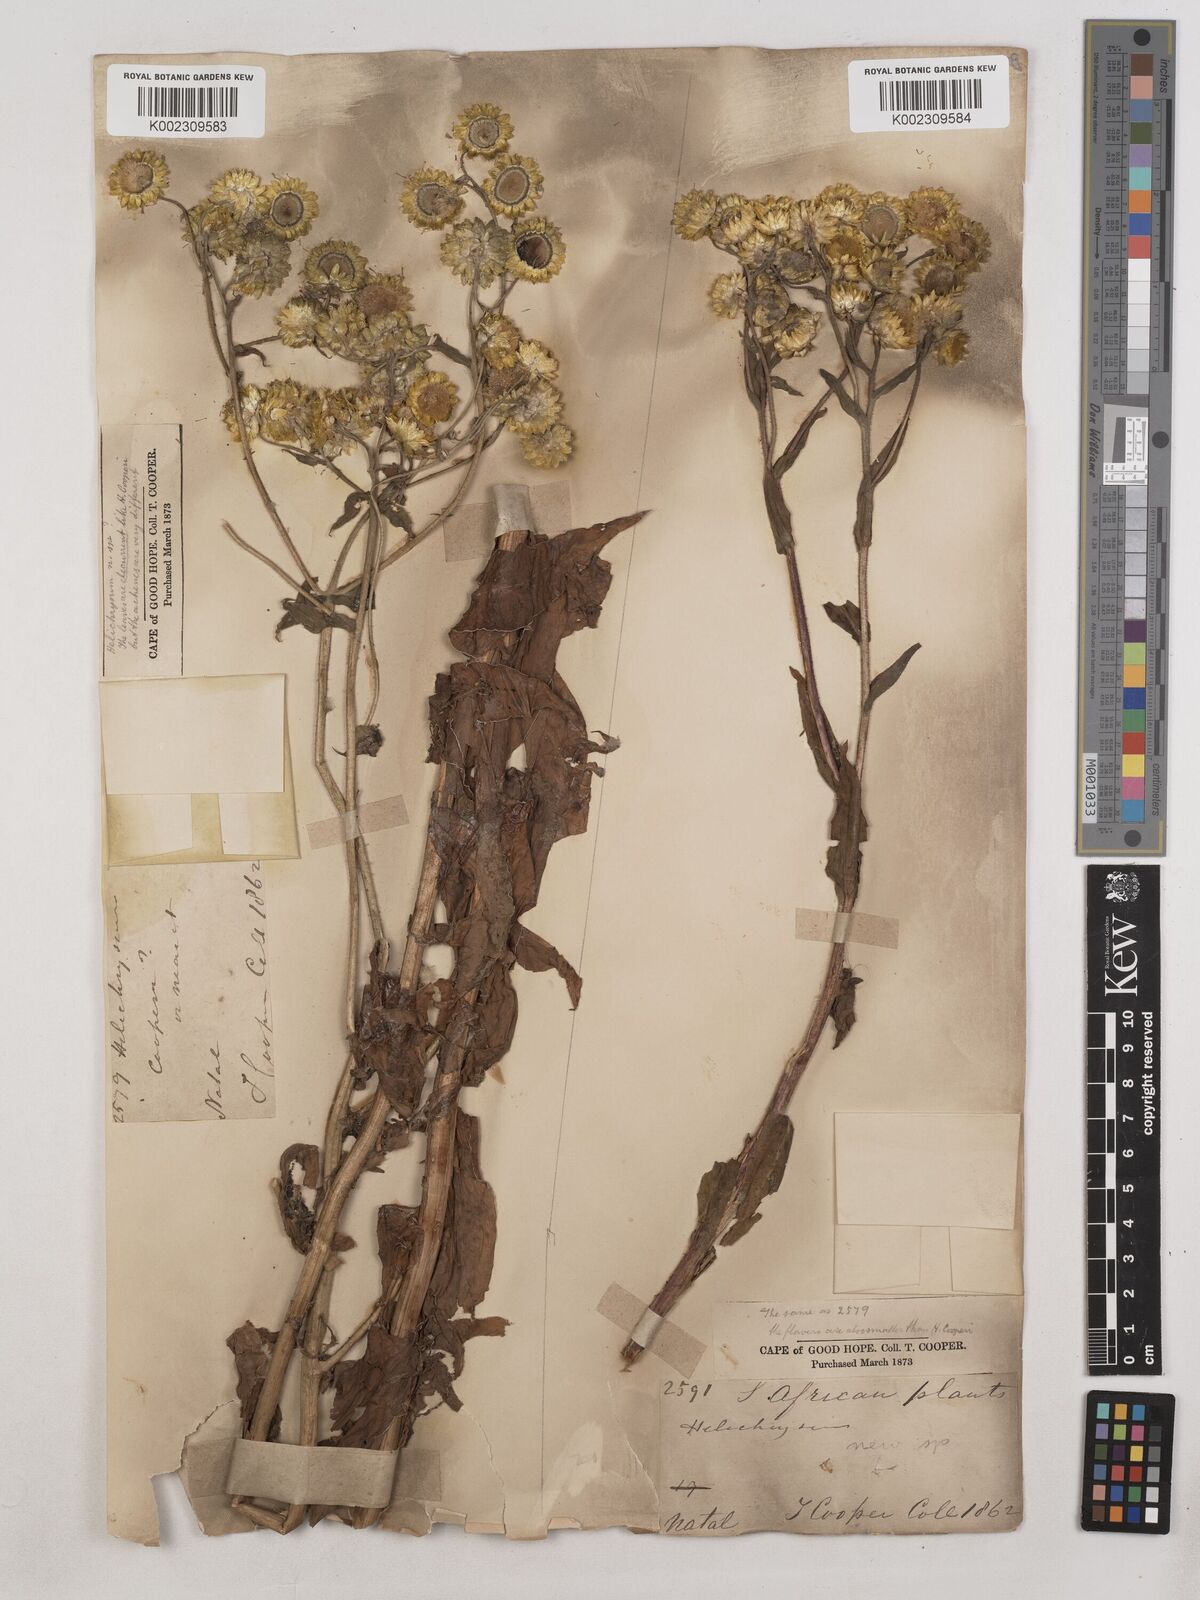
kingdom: Plantae
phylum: Tracheophyta
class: Magnoliopsida
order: Asterales
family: Asteraceae
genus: Helichrysum
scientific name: Helichrysum cooperi
